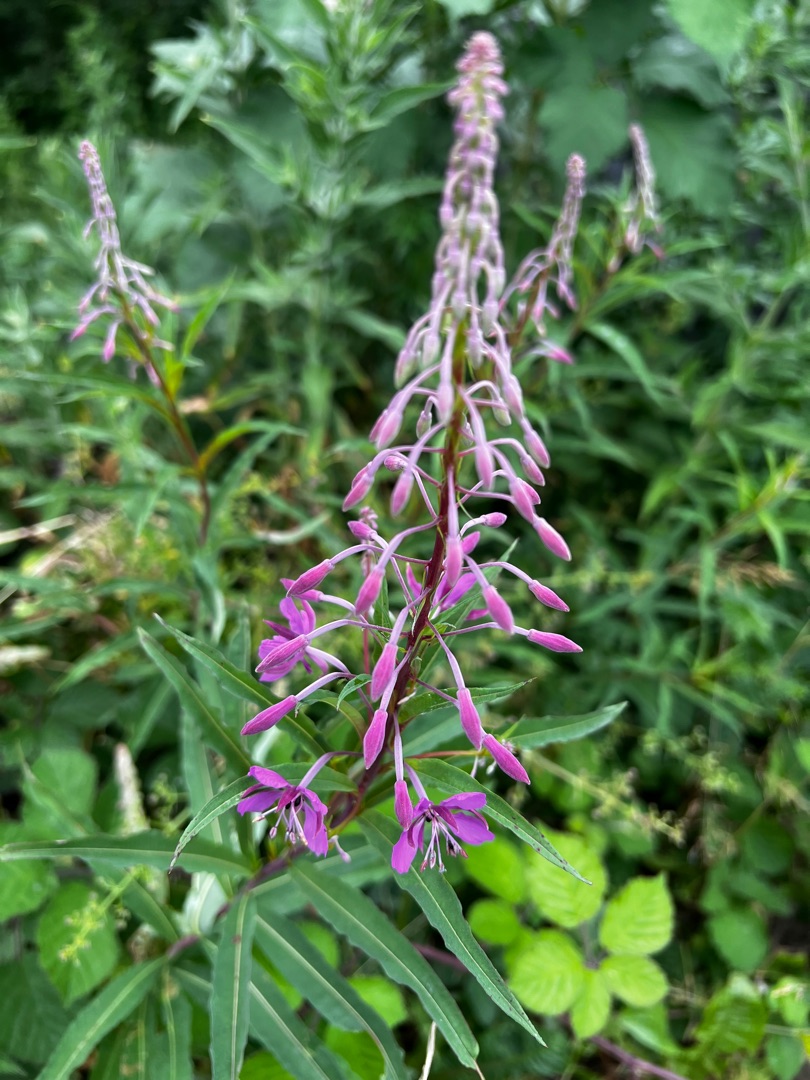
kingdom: Plantae
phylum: Tracheophyta
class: Magnoliopsida
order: Myrtales
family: Onagraceae
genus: Chamaenerion
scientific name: Chamaenerion angustifolium
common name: Gederams
